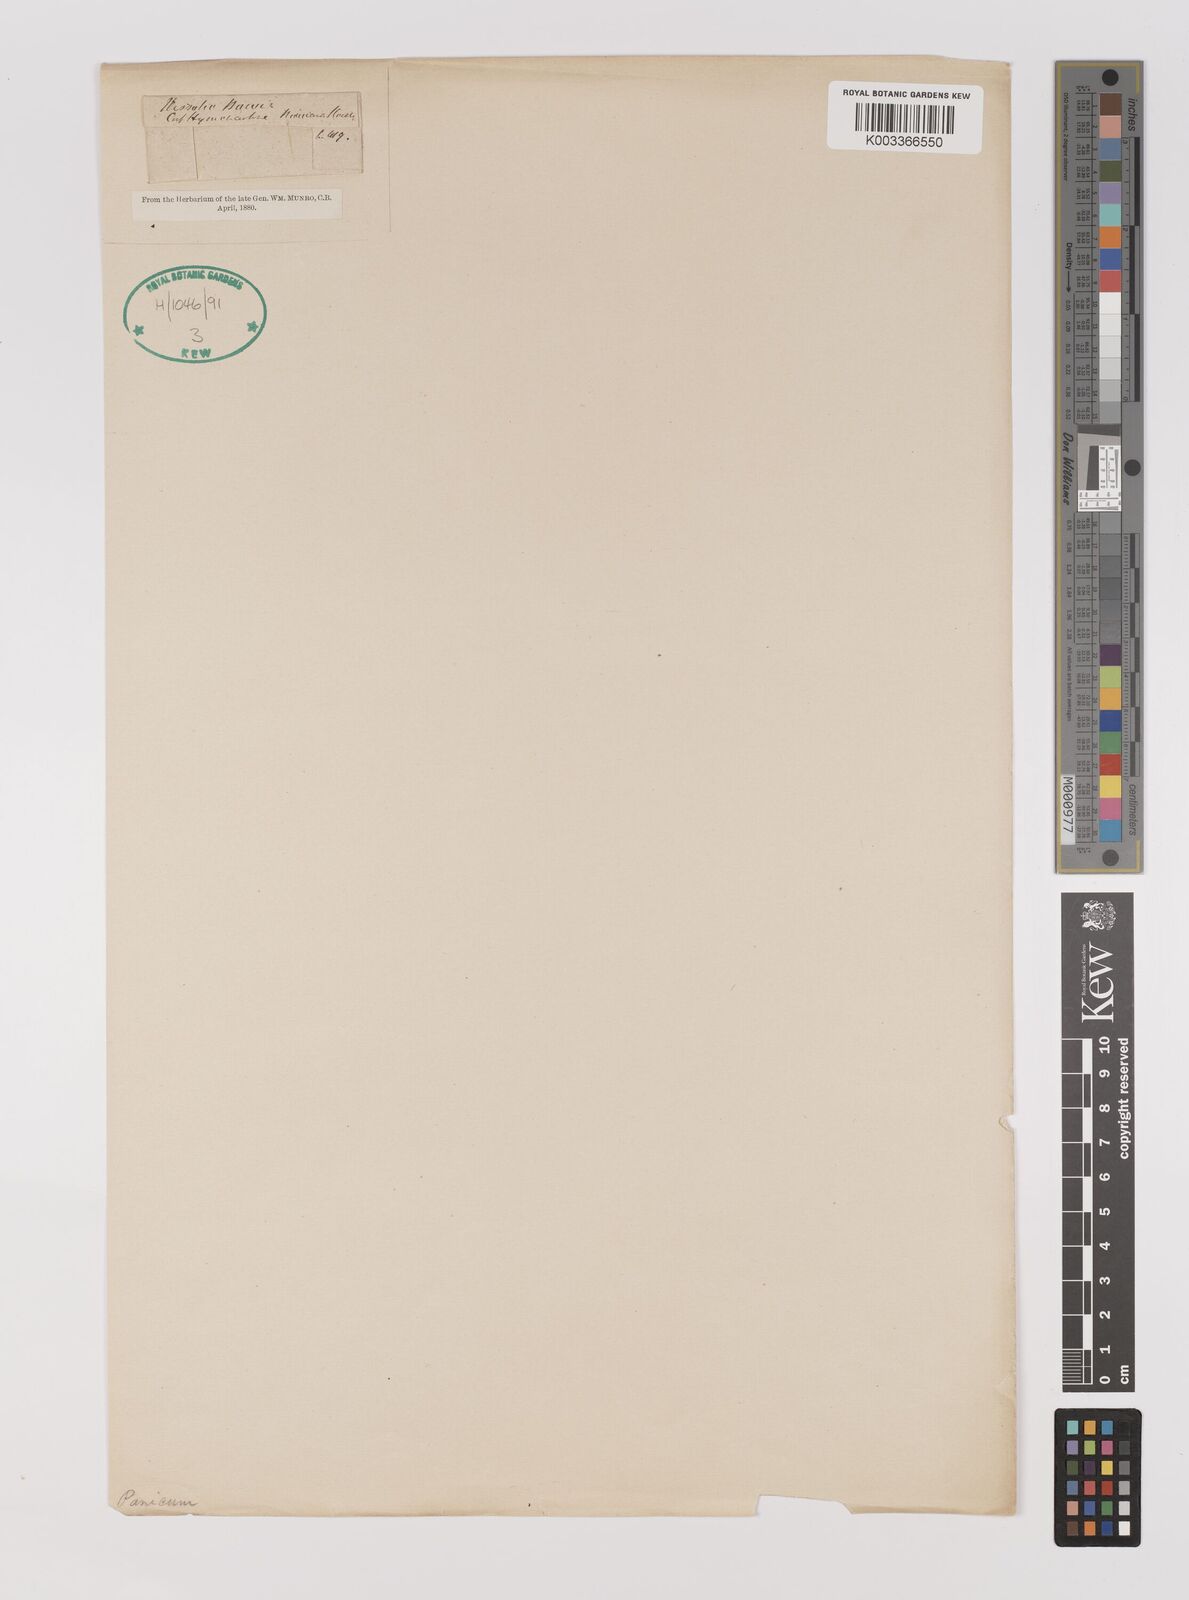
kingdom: Plantae
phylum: Tracheophyta
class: Liliopsida
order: Poales
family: Poaceae
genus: Chasechloa
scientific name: Chasechloa madagascariensis
